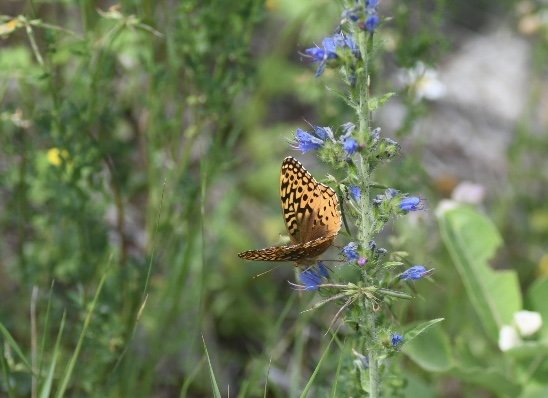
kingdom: Animalia
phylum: Arthropoda
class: Insecta
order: Lepidoptera
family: Nymphalidae
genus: Speyeria
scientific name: Speyeria cybele
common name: Great Spangled Fritillary
